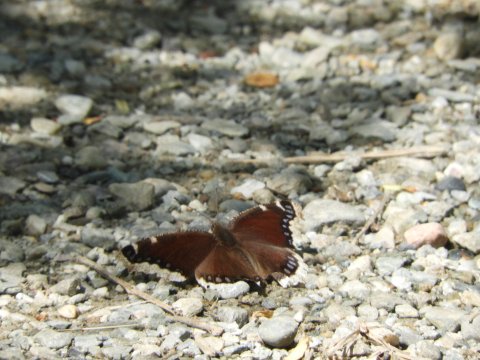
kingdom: Animalia
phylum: Arthropoda
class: Insecta
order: Lepidoptera
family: Nymphalidae
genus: Nymphalis
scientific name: Nymphalis antiopa
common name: Mourning Cloak
